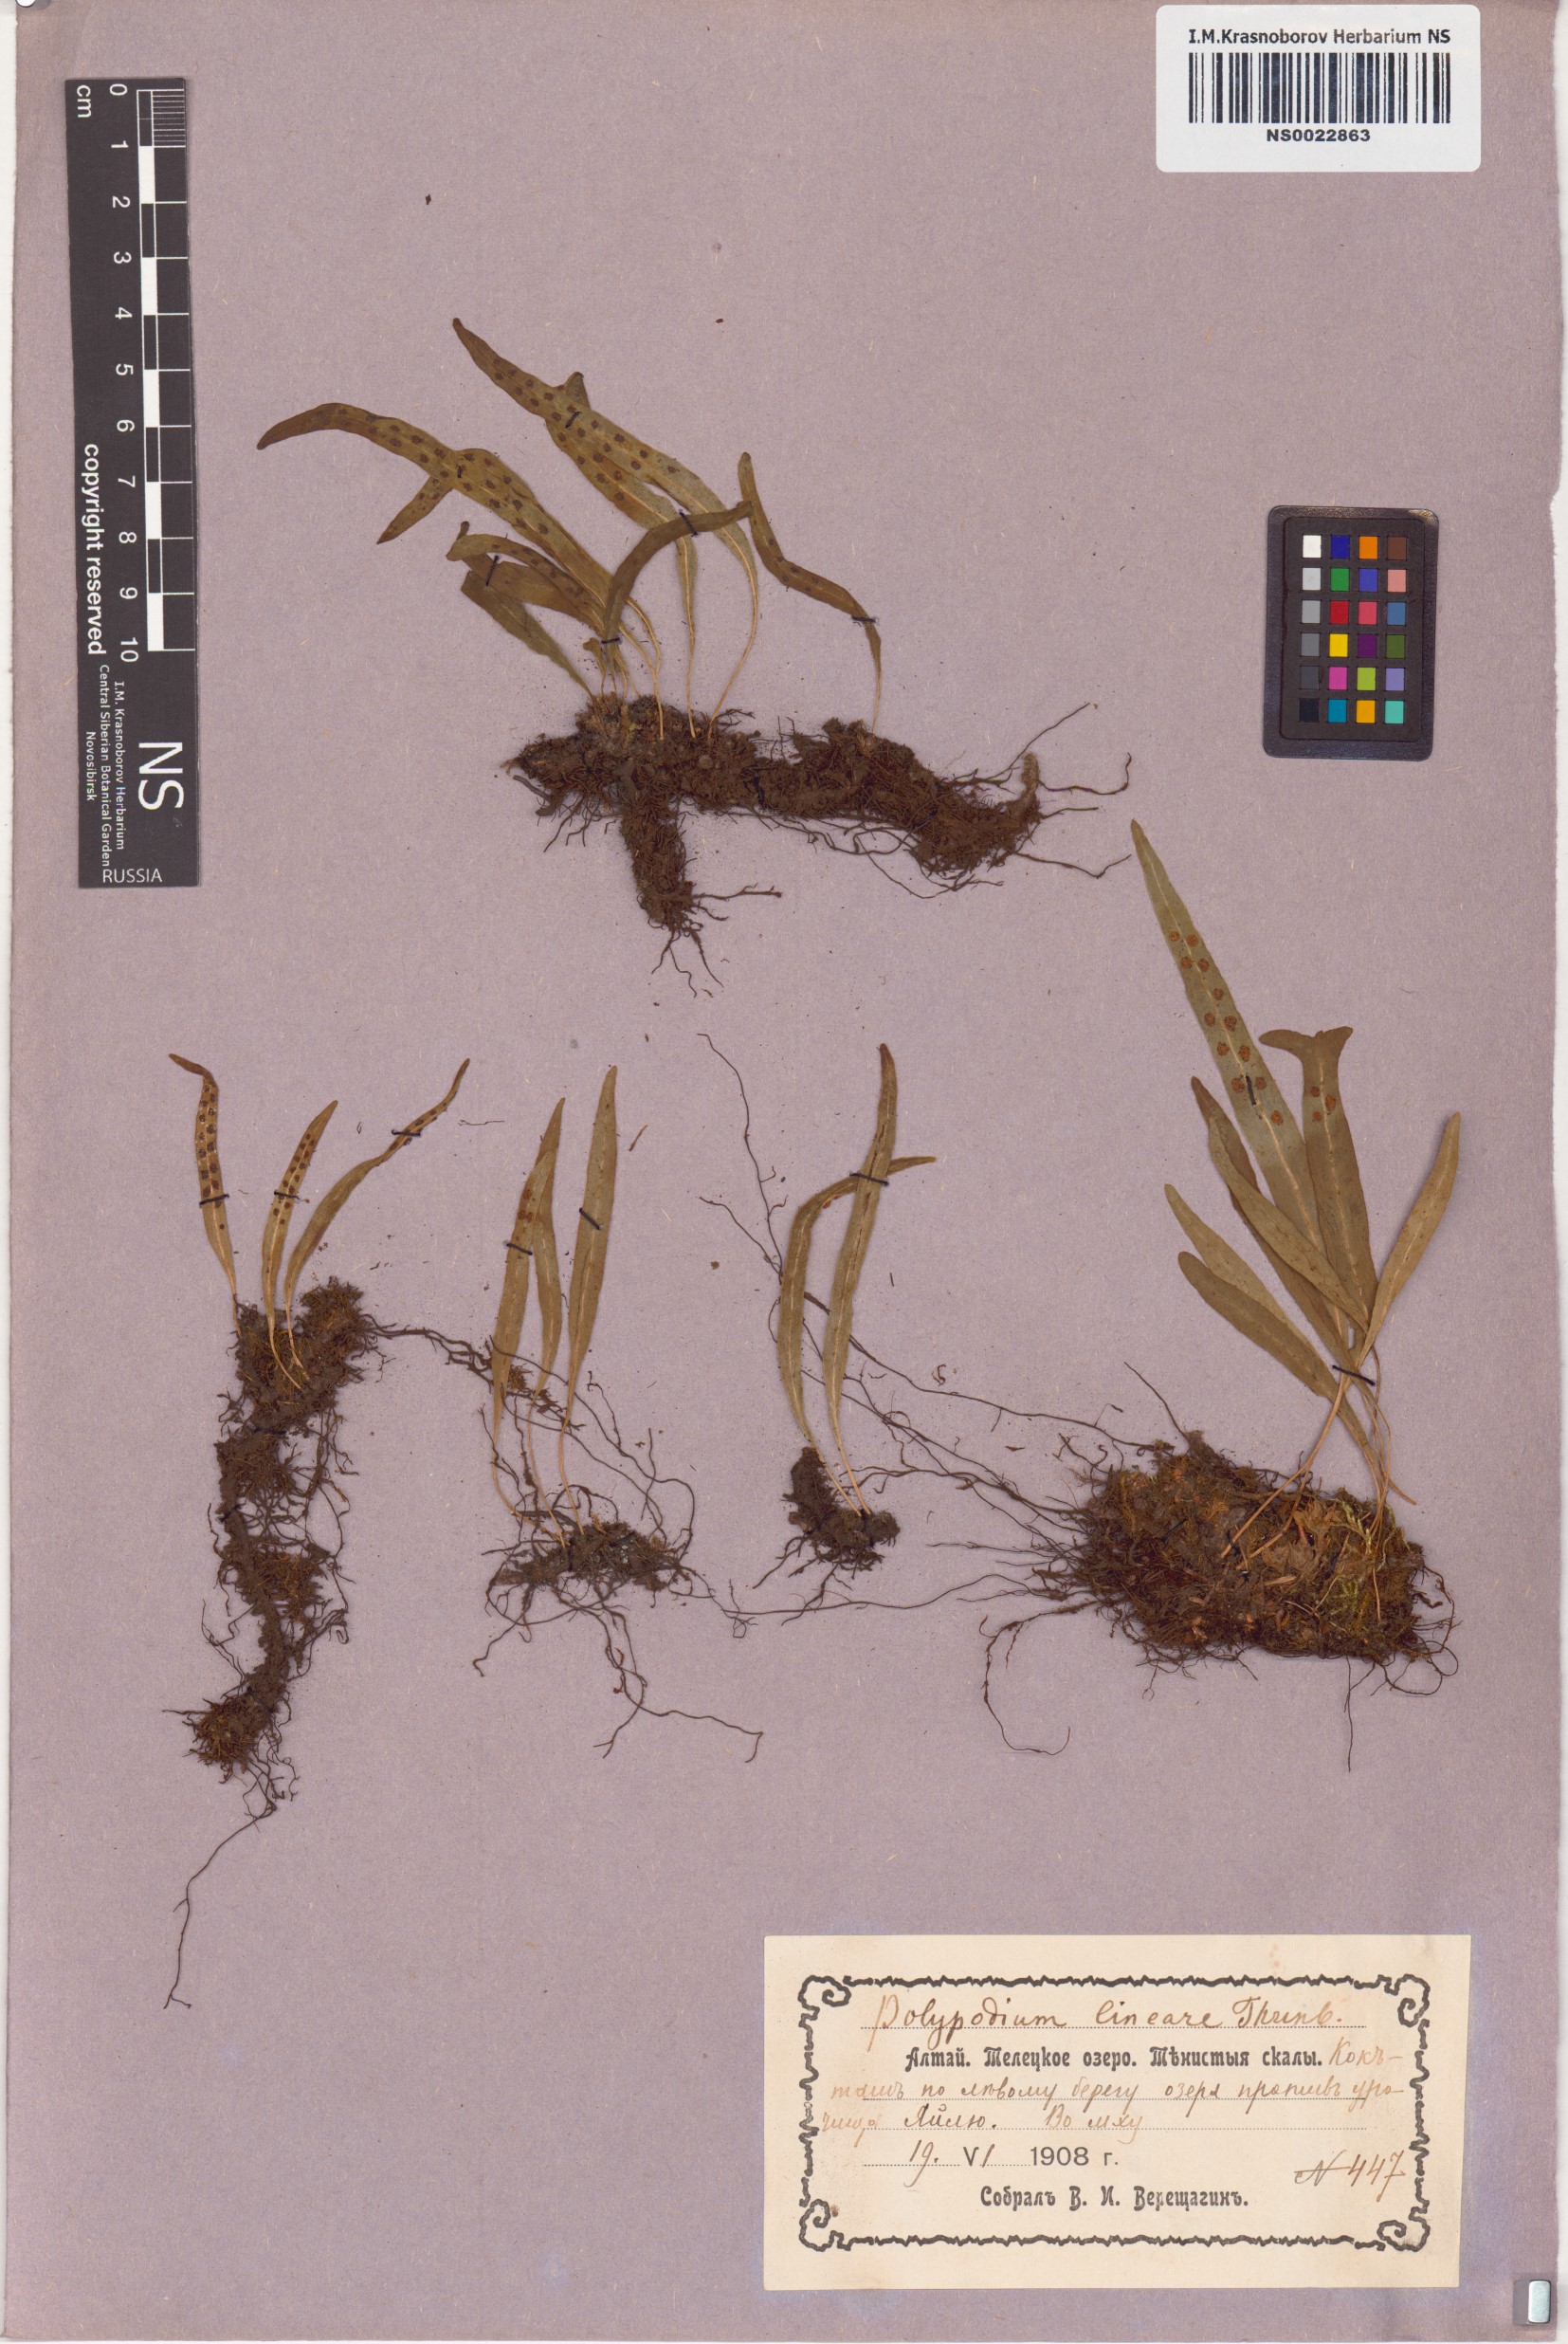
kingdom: Plantae
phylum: Tracheophyta
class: Polypodiopsida
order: Polypodiales
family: Polypodiaceae
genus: Lepisorus
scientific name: Lepisorus thunbergianus
